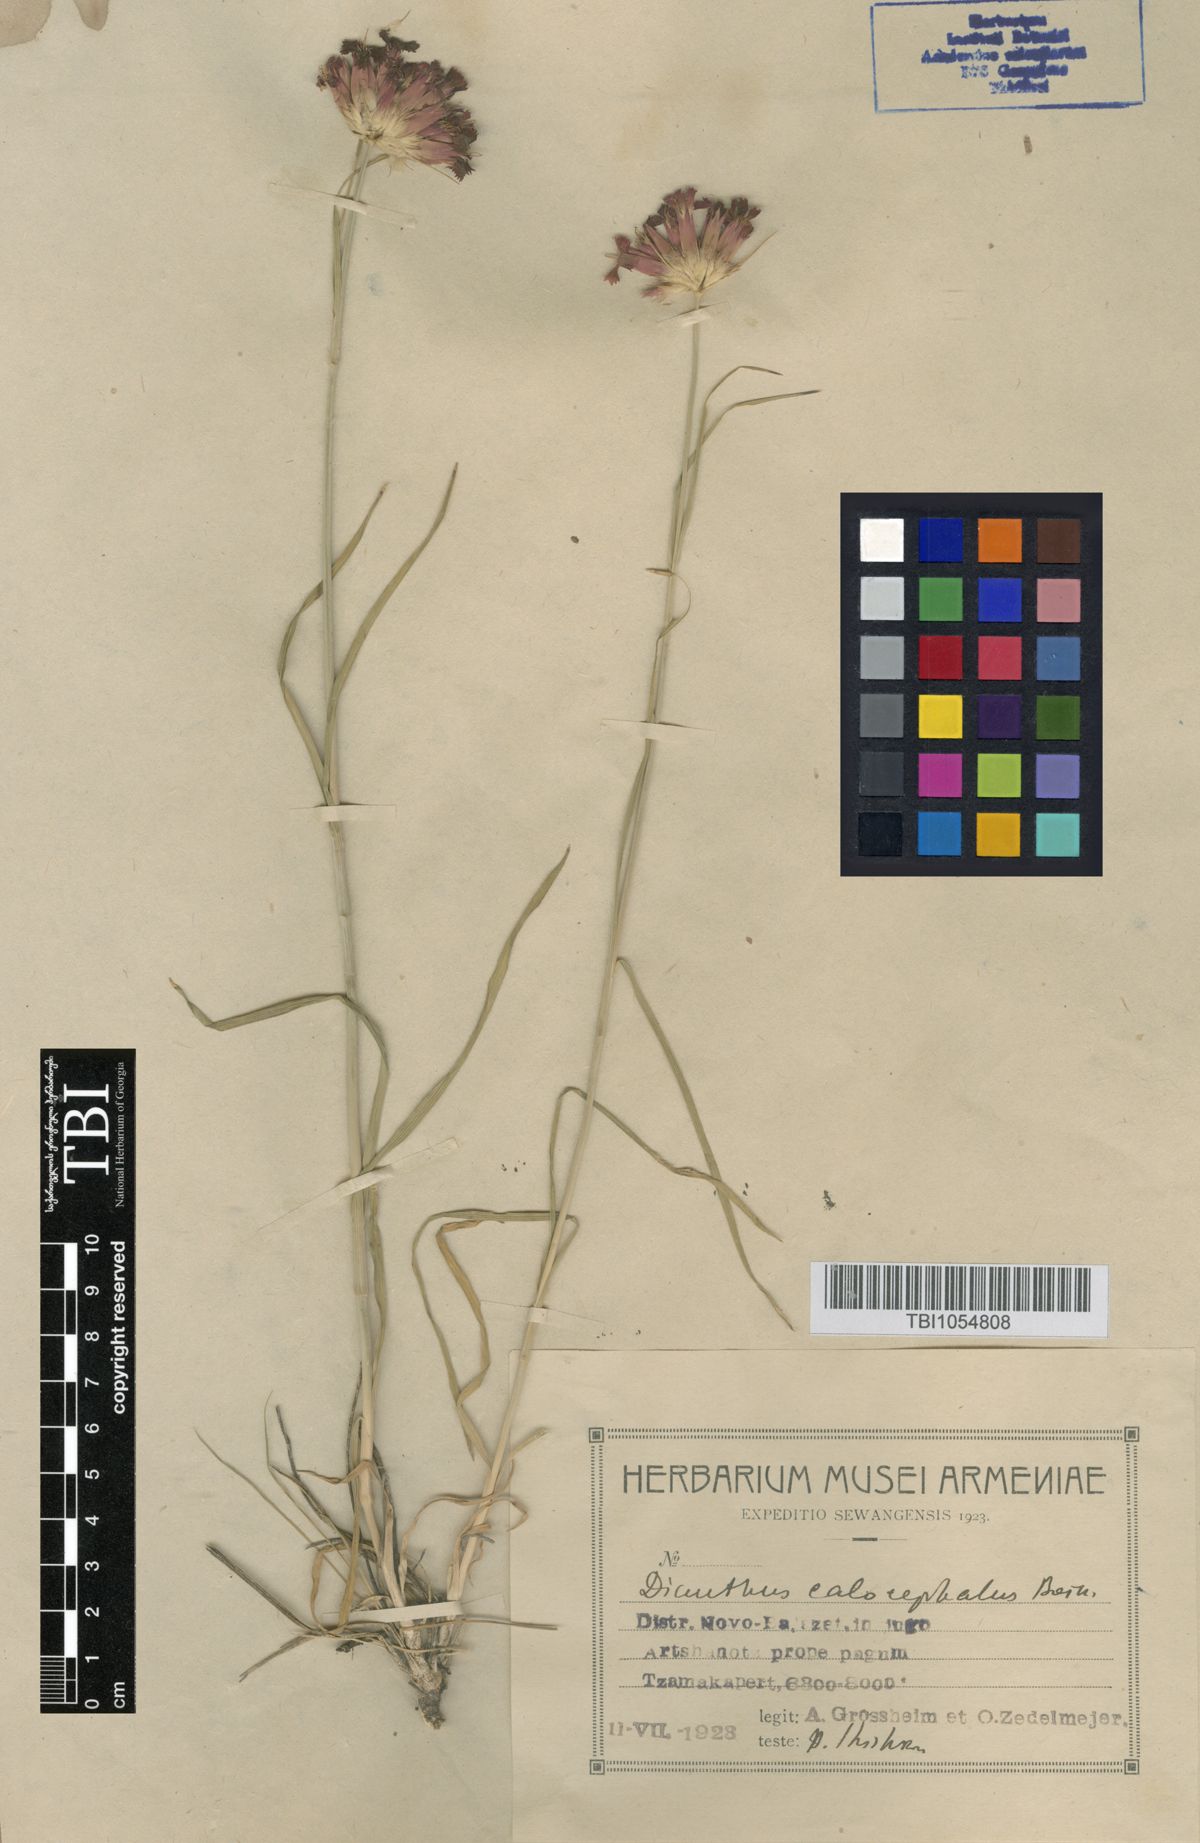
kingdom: Plantae
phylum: Tracheophyta
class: Magnoliopsida
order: Caryophyllales
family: Caryophyllaceae
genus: Dianthus
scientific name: Dianthus cruentus
